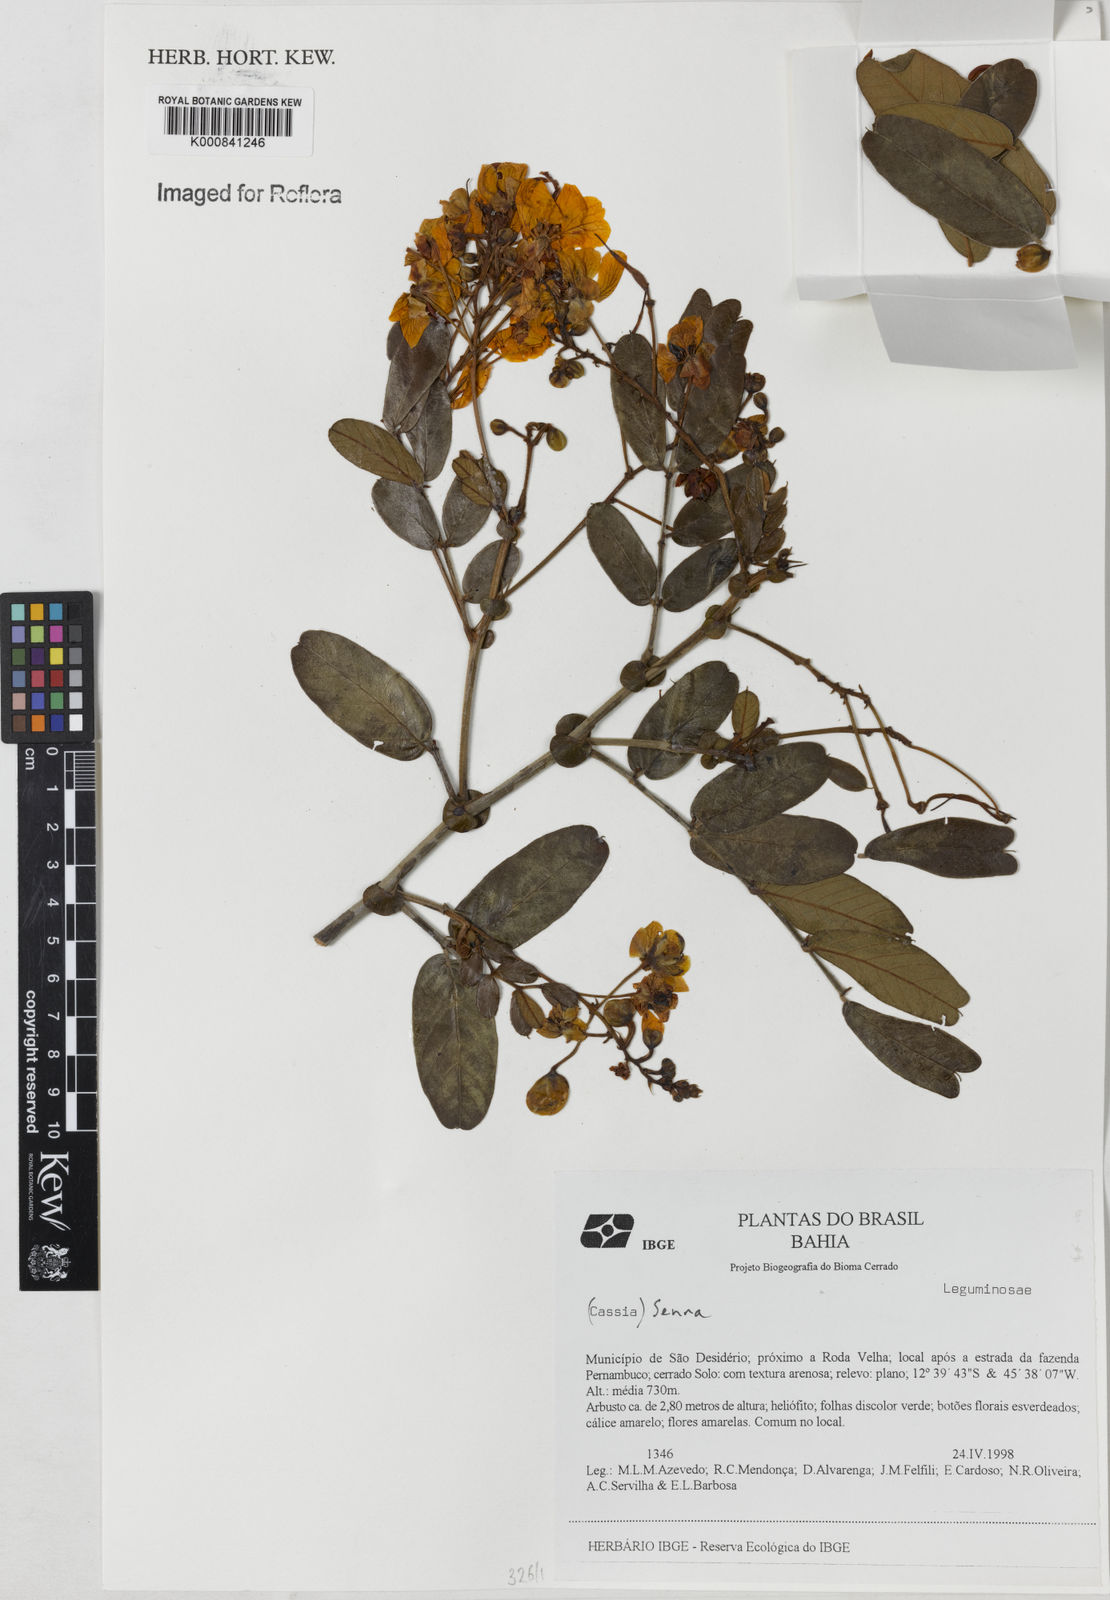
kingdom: Plantae
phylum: Tracheophyta
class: Magnoliopsida
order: Fabales
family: Fabaceae
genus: Senna
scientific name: Senna
